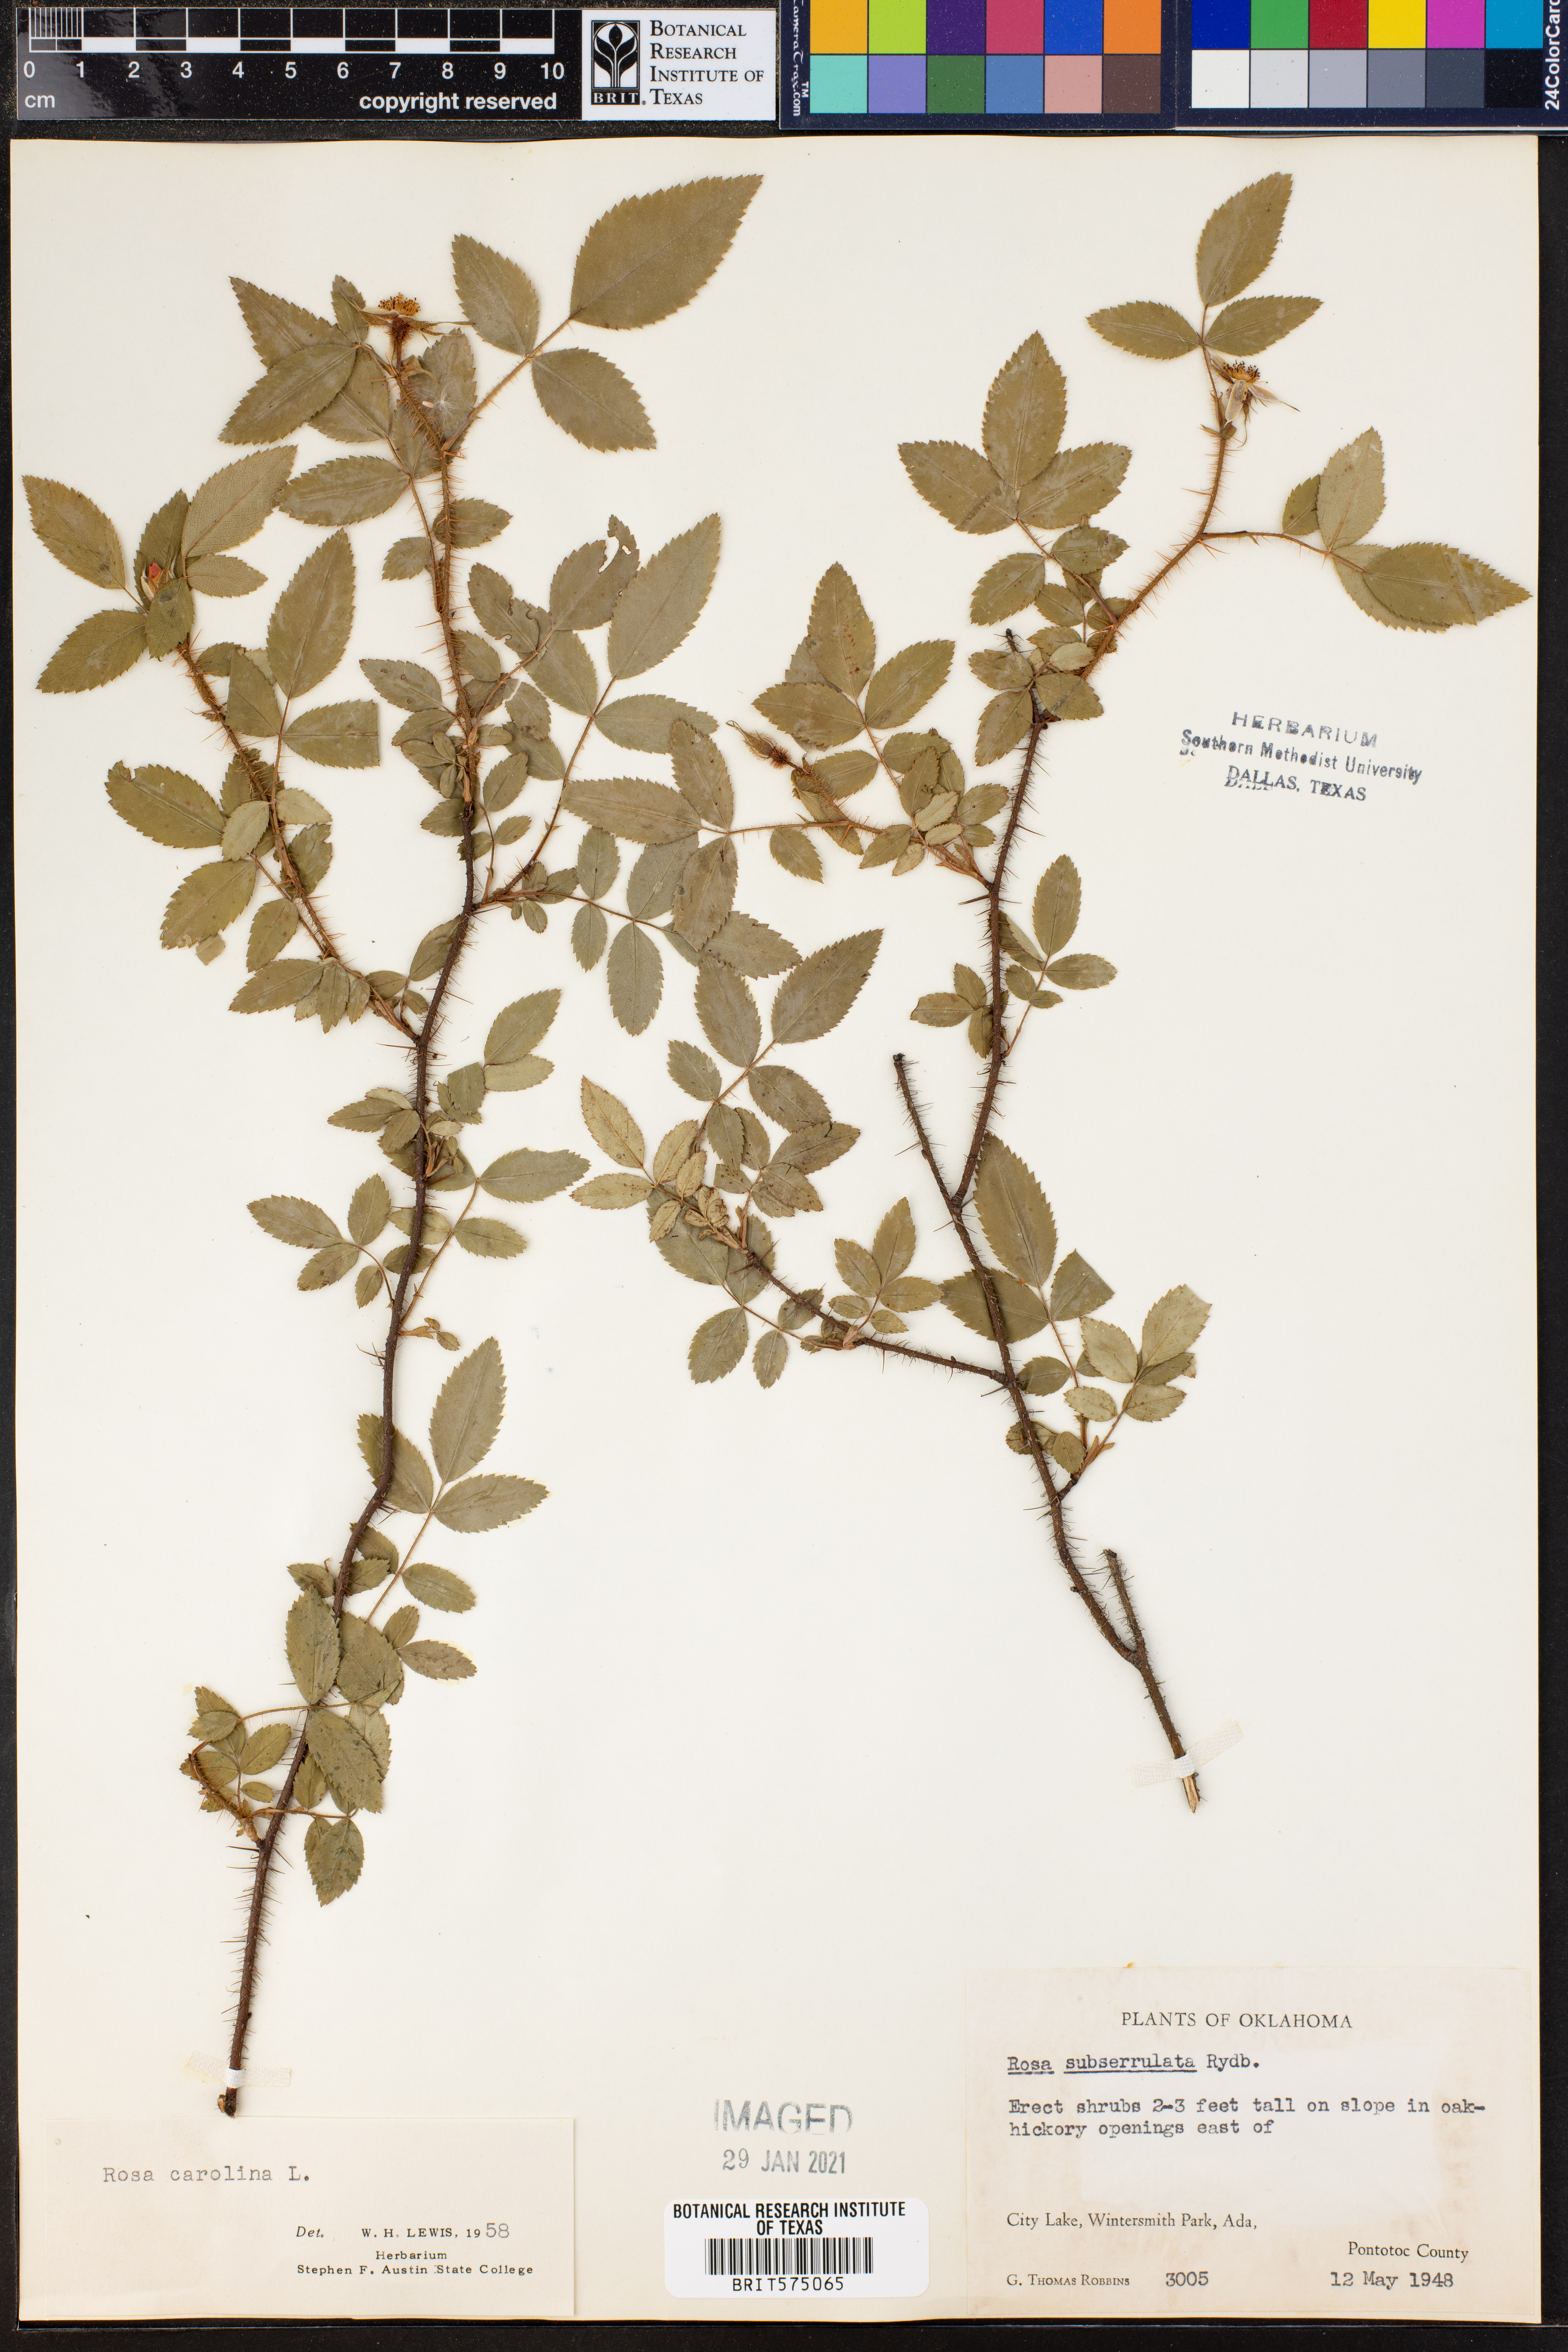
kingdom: Plantae
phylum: Tracheophyta
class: Magnoliopsida
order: Rosales
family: Rosaceae
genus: Rosa
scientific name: Rosa carolina
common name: Pasture rose
